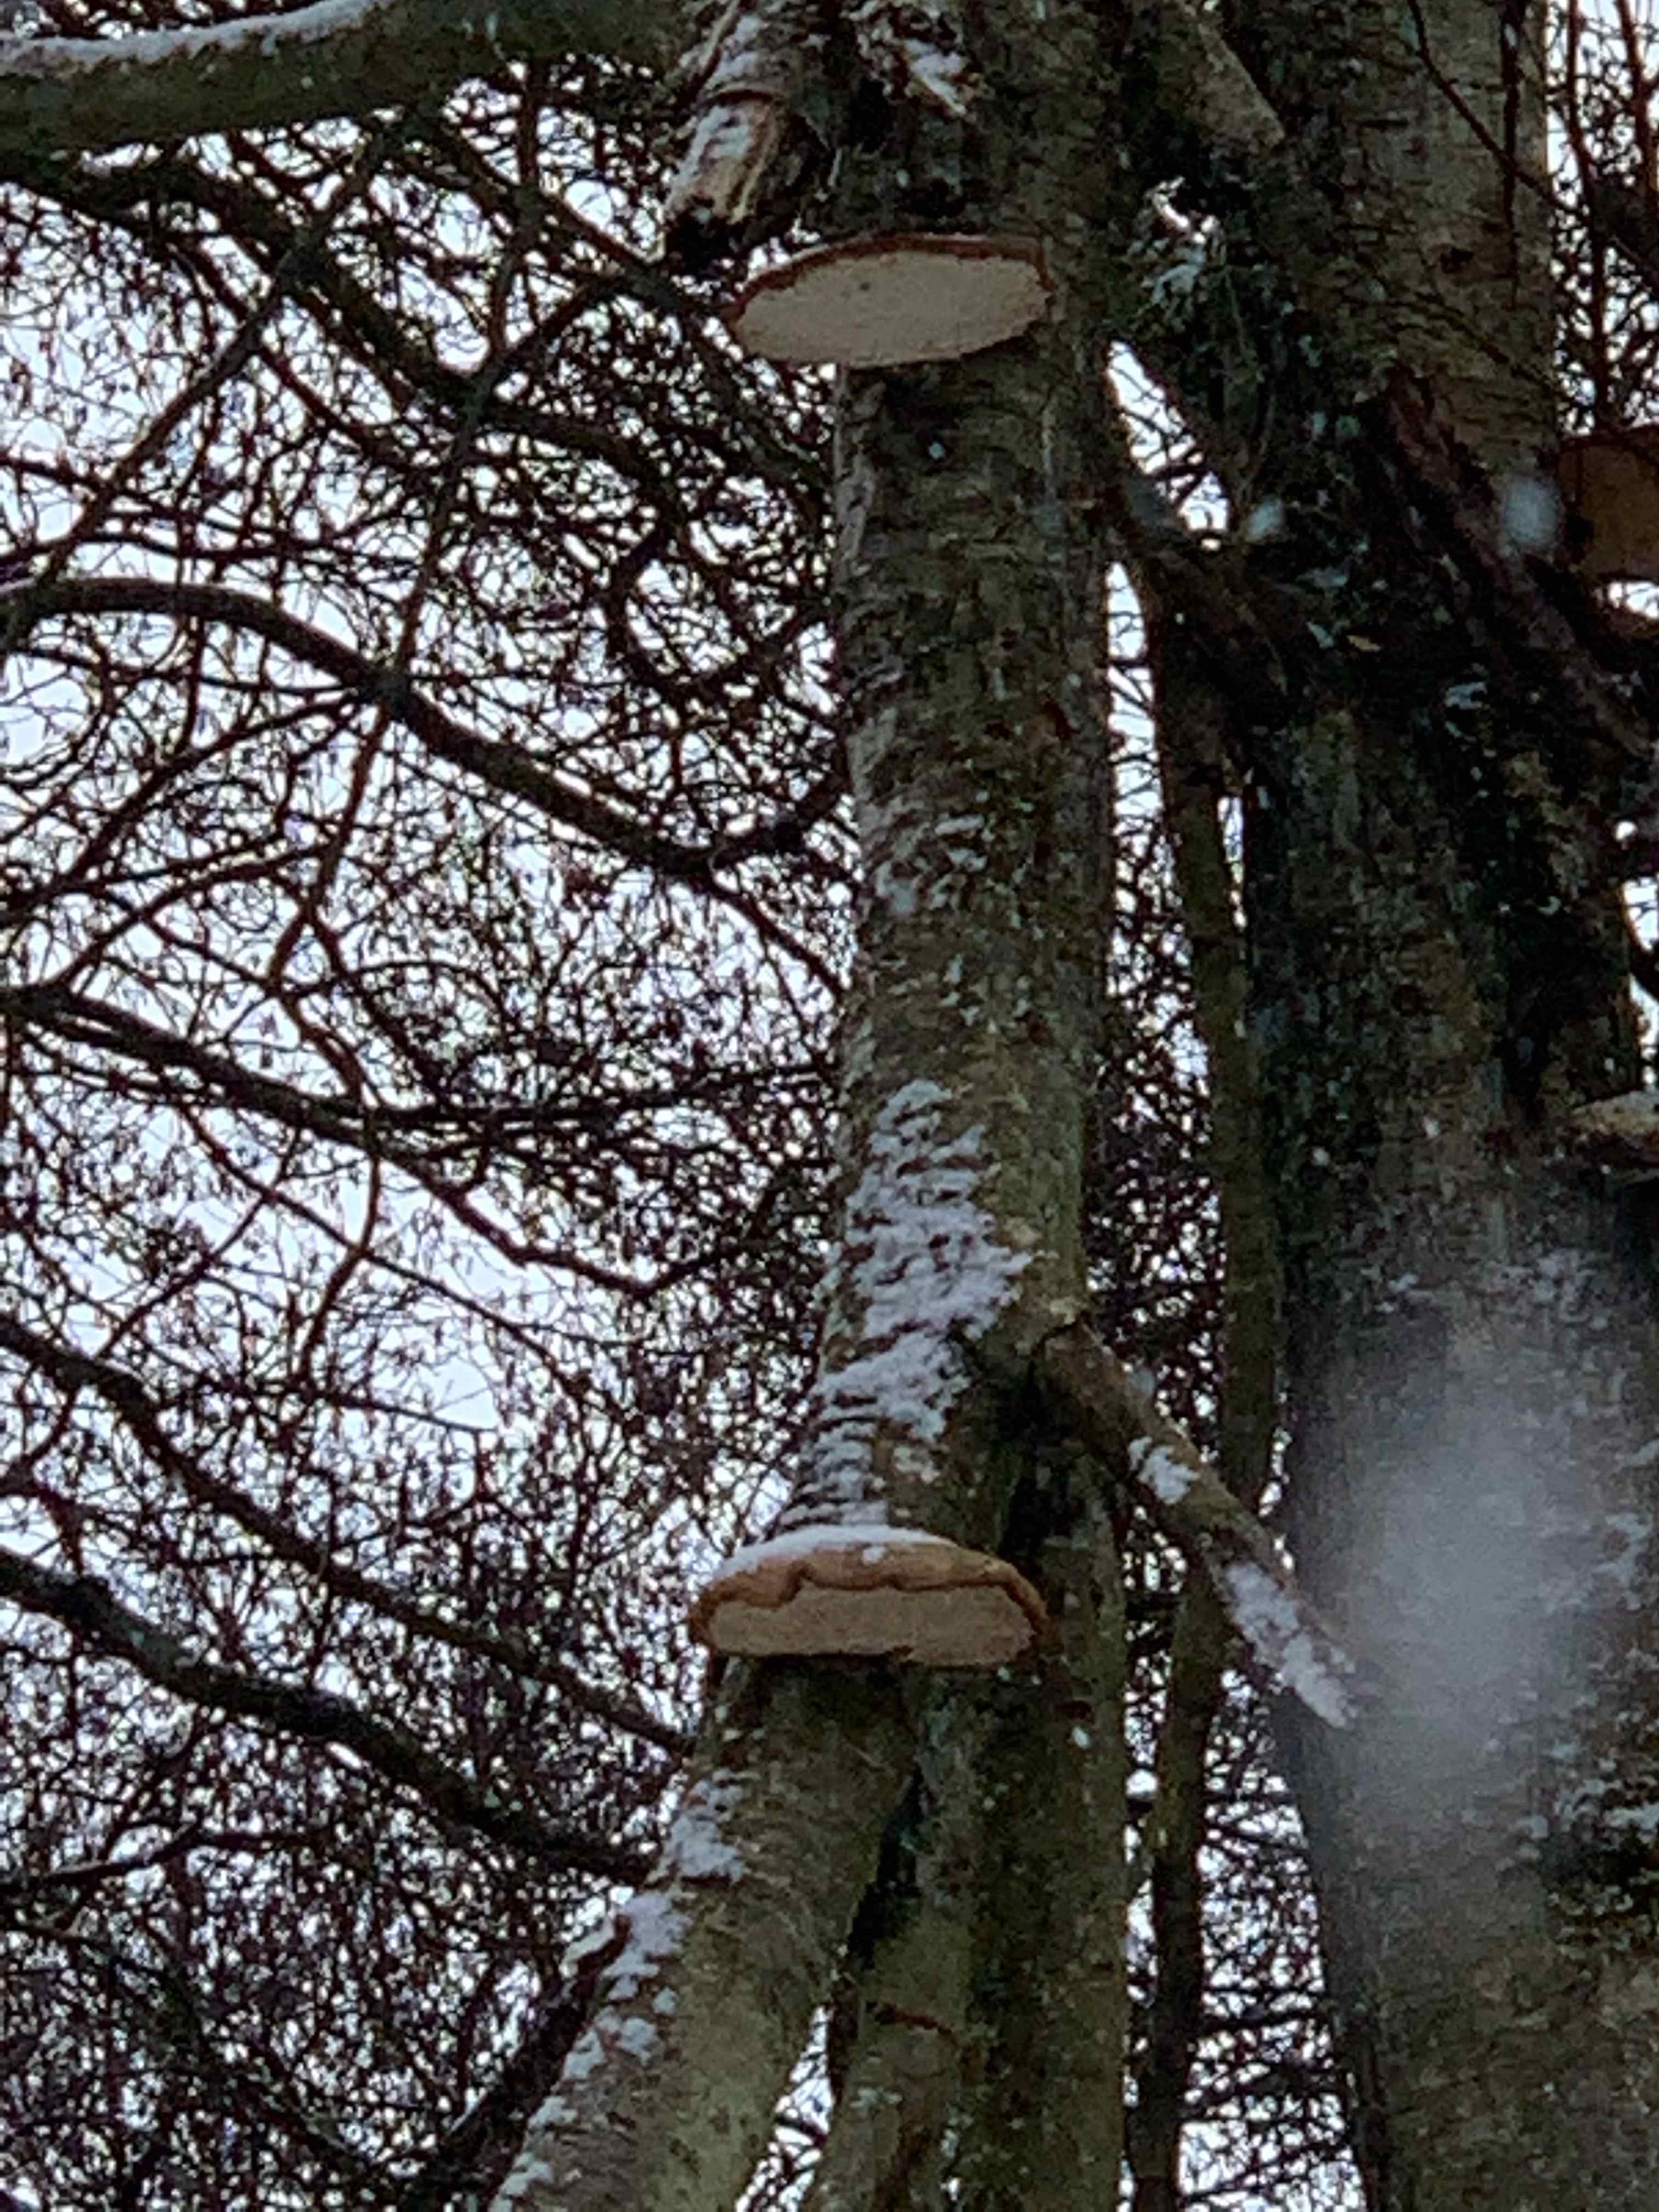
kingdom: Fungi
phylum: Basidiomycota
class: Agaricomycetes
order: Polyporales
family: Fomitopsidaceae
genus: Fomitopsis
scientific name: Fomitopsis betulina
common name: birkeporesvamp
